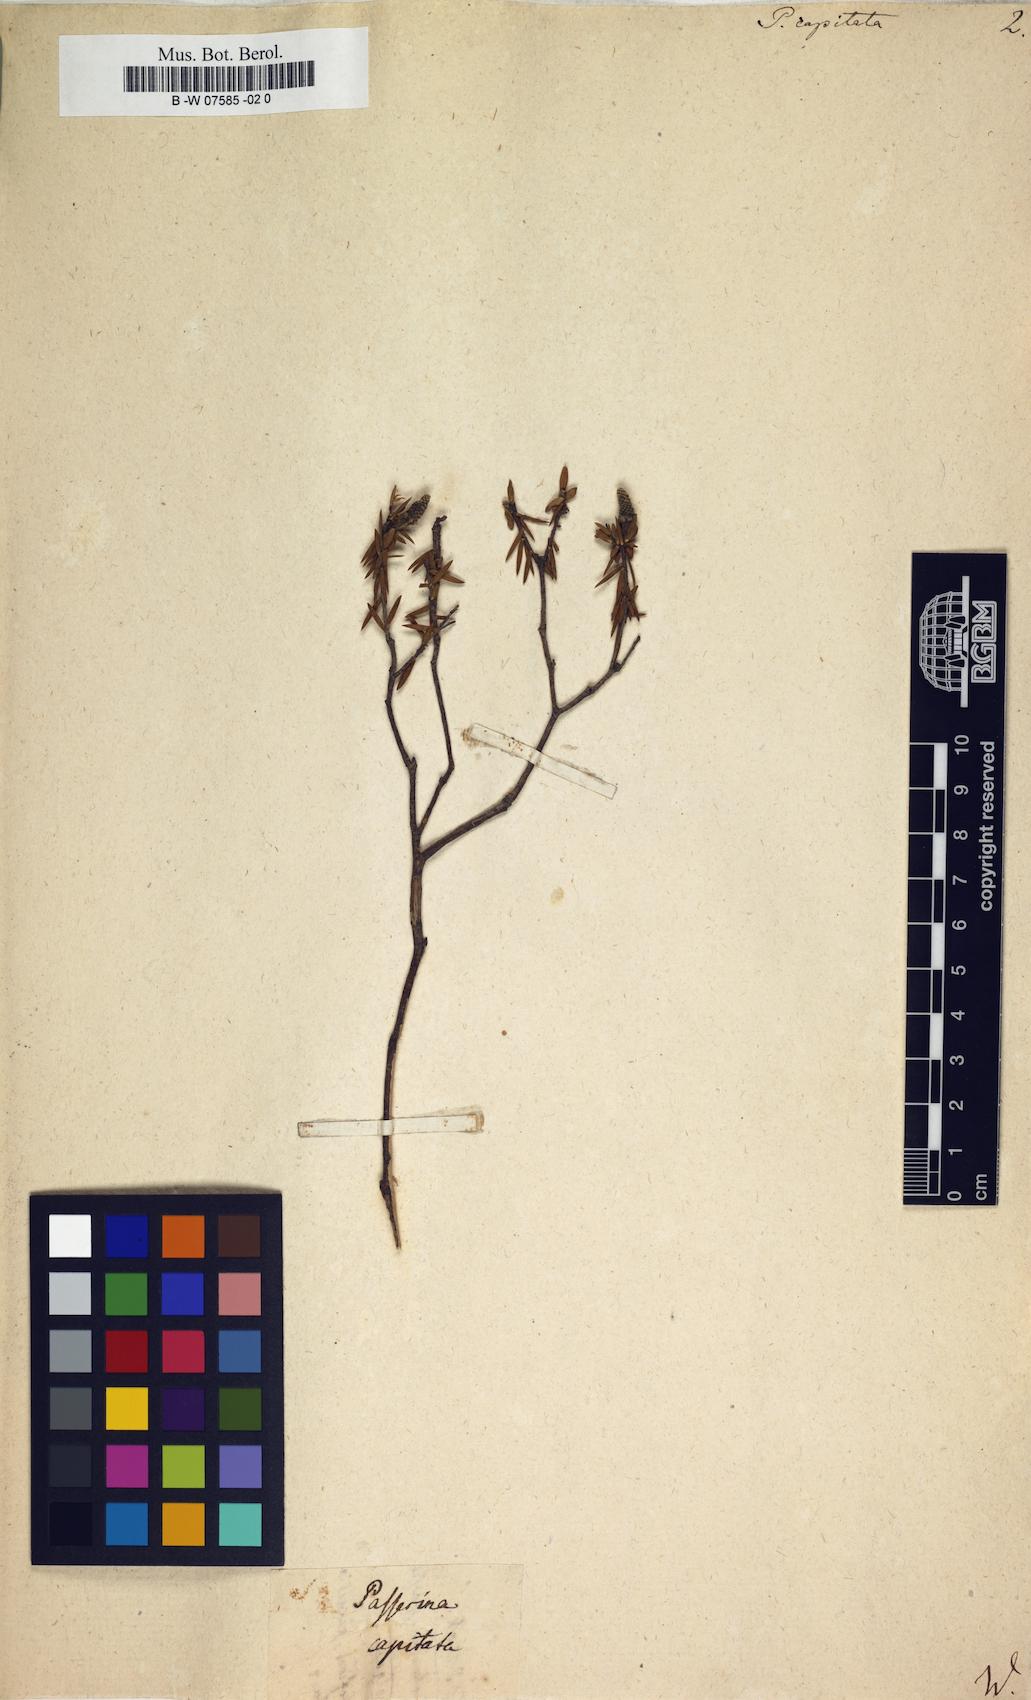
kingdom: Plantae
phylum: Tracheophyta
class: Magnoliopsida
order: Malvales
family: Thymelaeaceae
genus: Lachnaea
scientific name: Lachnaea capitata
